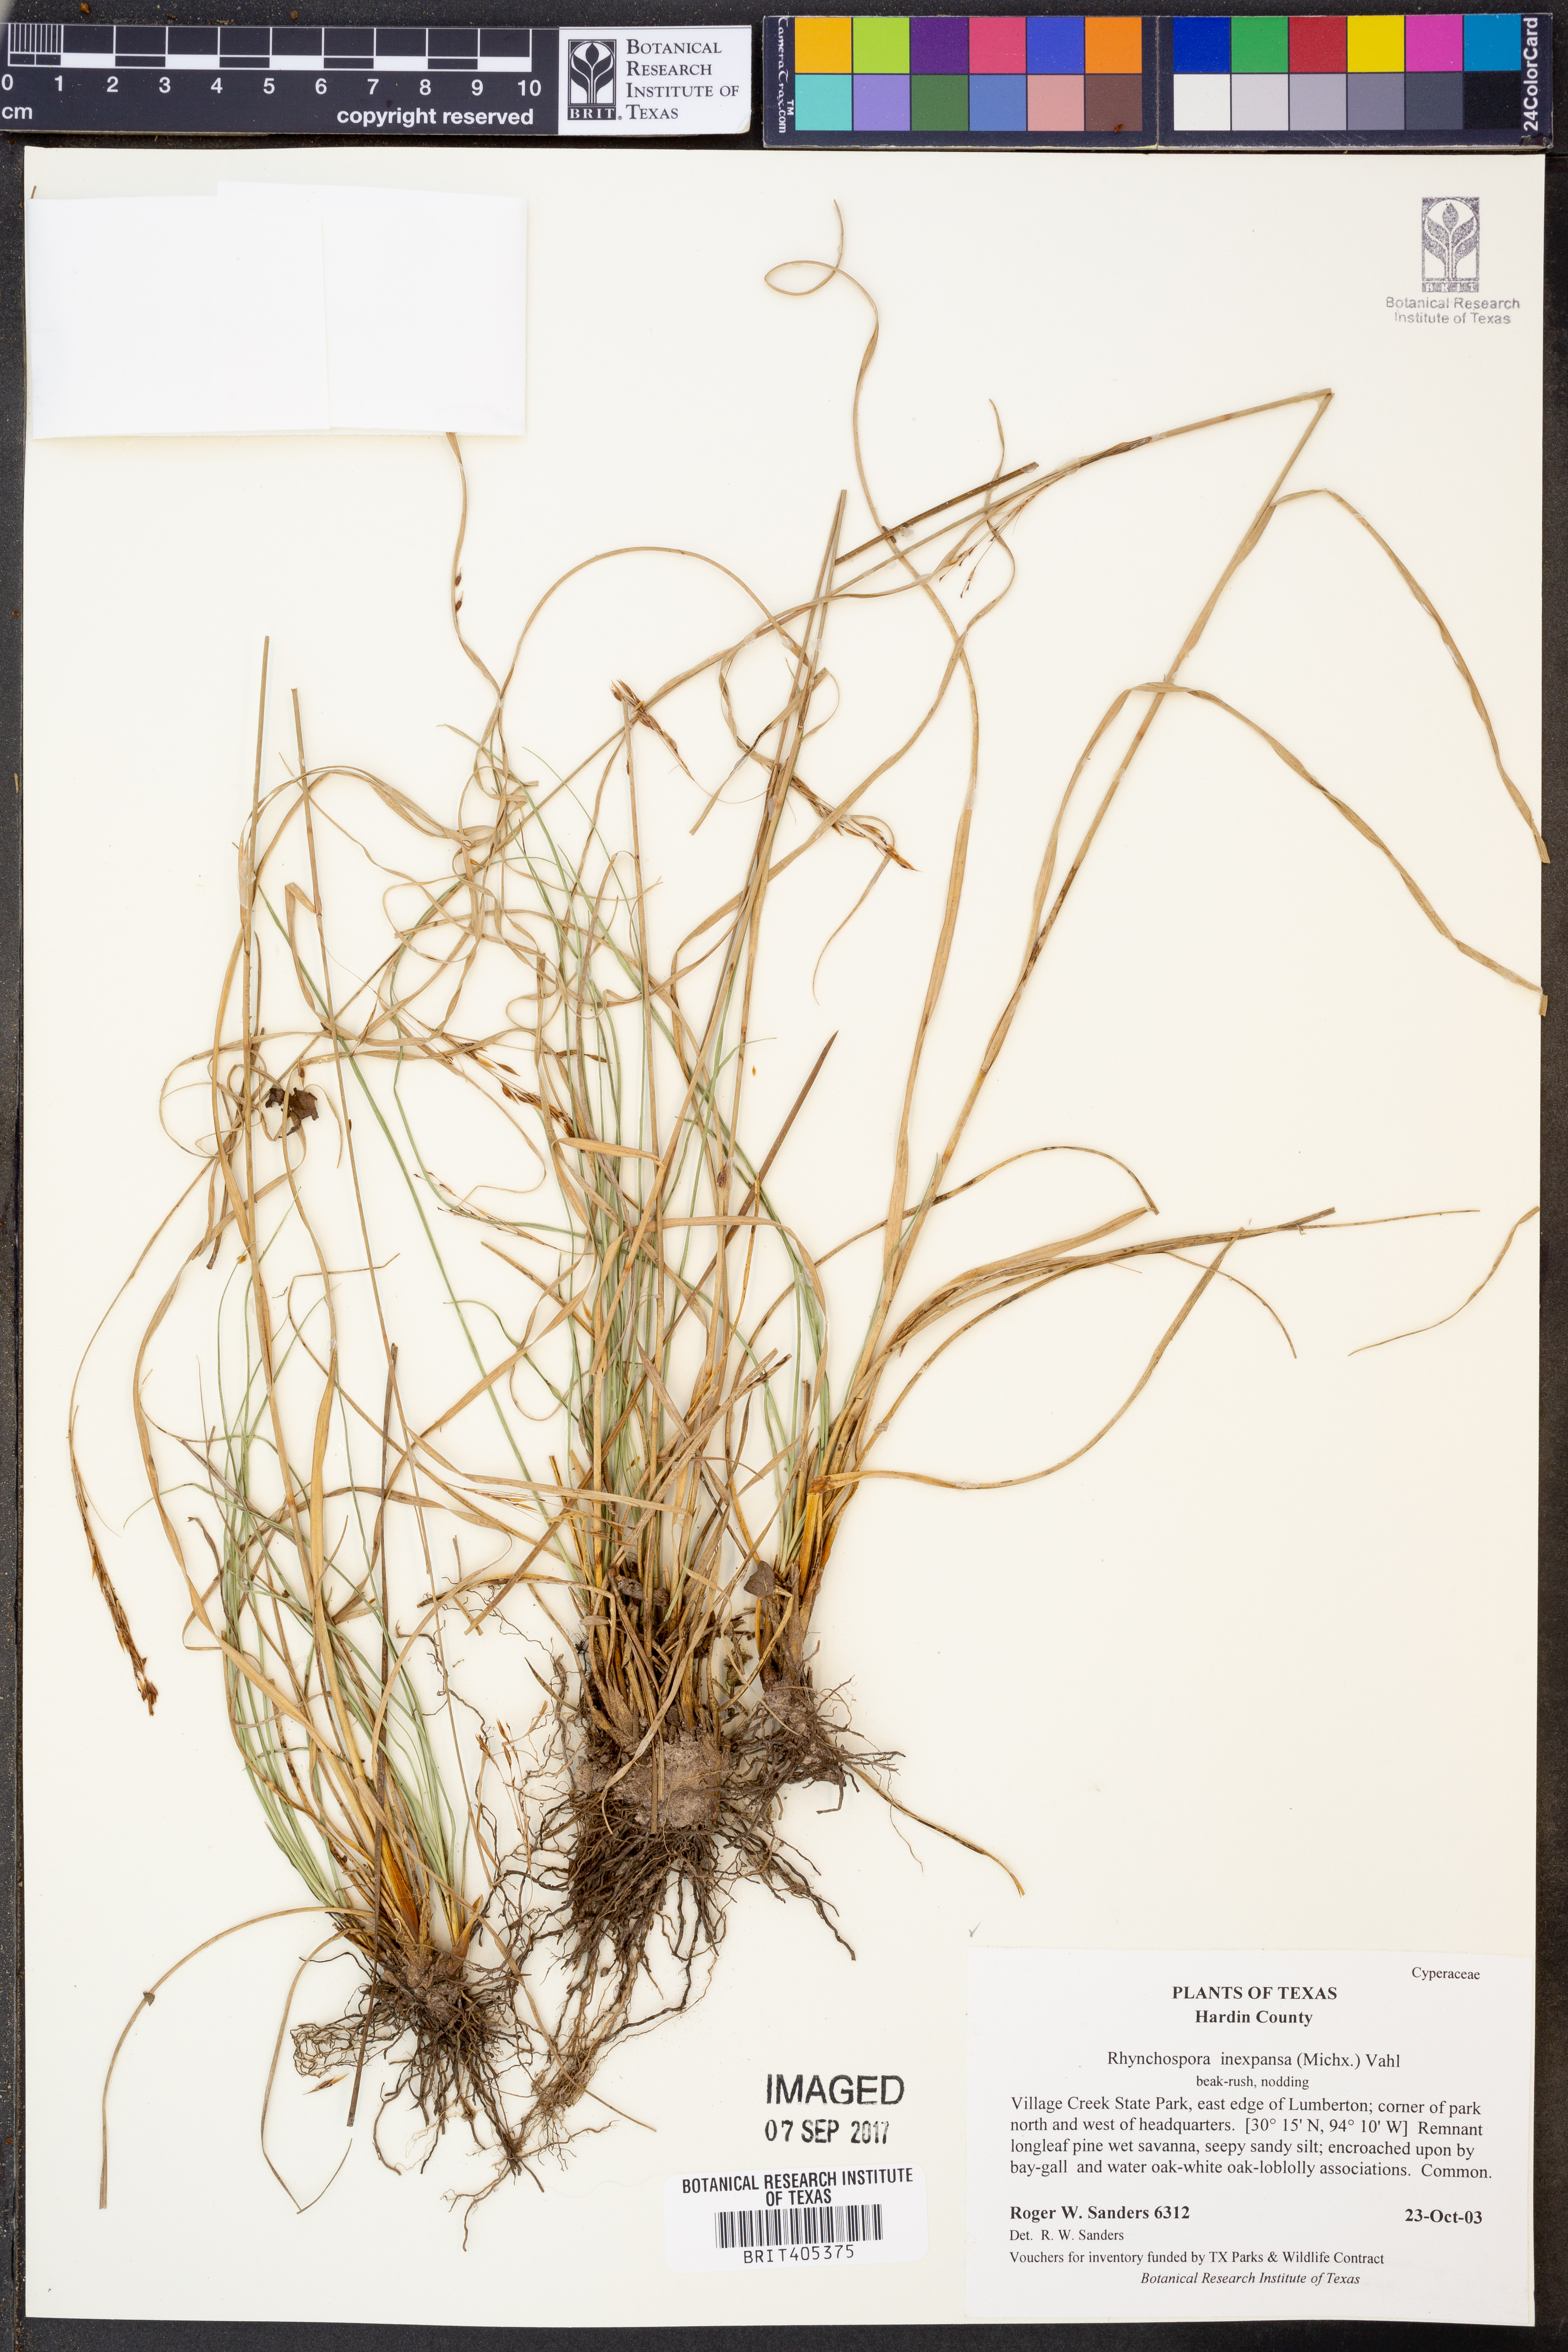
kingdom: Plantae
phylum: Tracheophyta
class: Liliopsida
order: Poales
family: Cyperaceae
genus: Rhynchospora
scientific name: Rhynchospora inexpansa
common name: Nodding beaksedge
